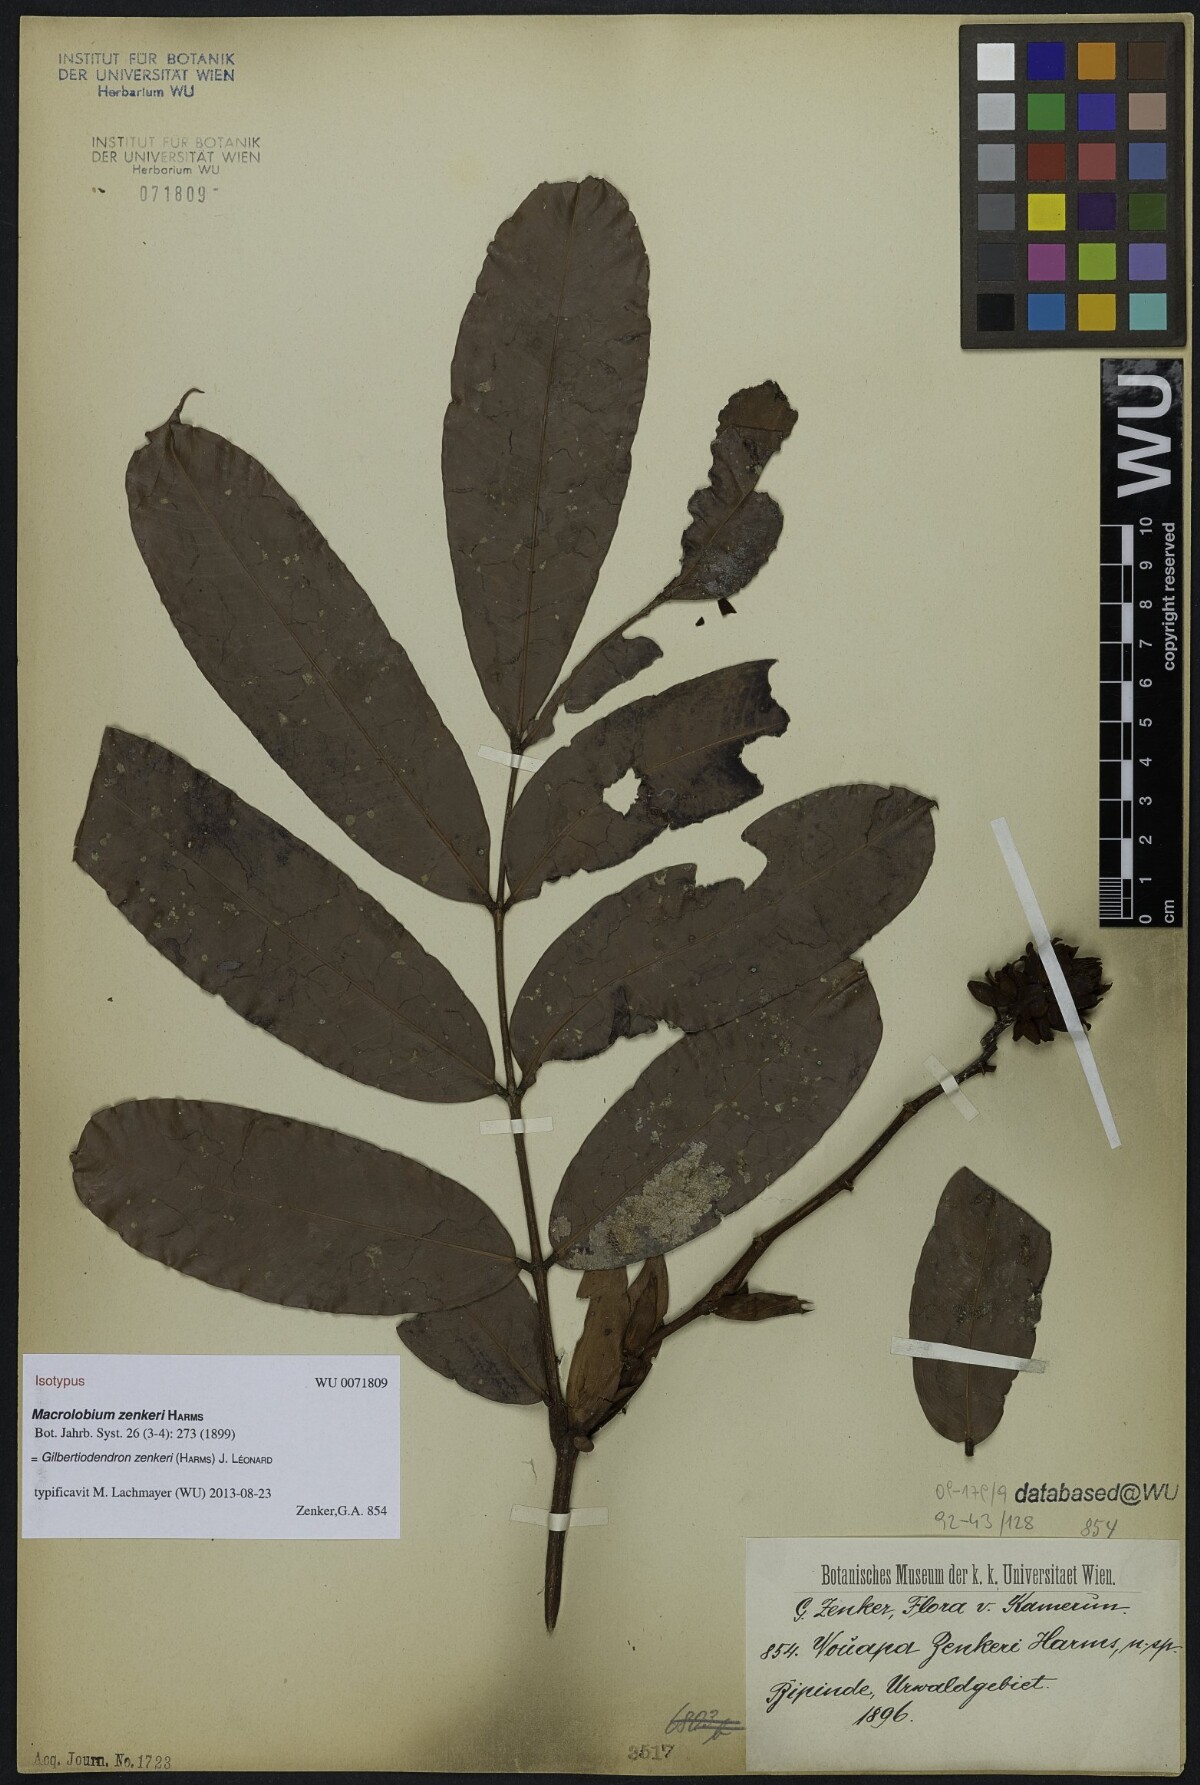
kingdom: Plantae
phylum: Tracheophyta
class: Magnoliopsida
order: Fabales
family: Fabaceae
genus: Gilbertiodendron
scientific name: Gilbertiodendron zenkeri
